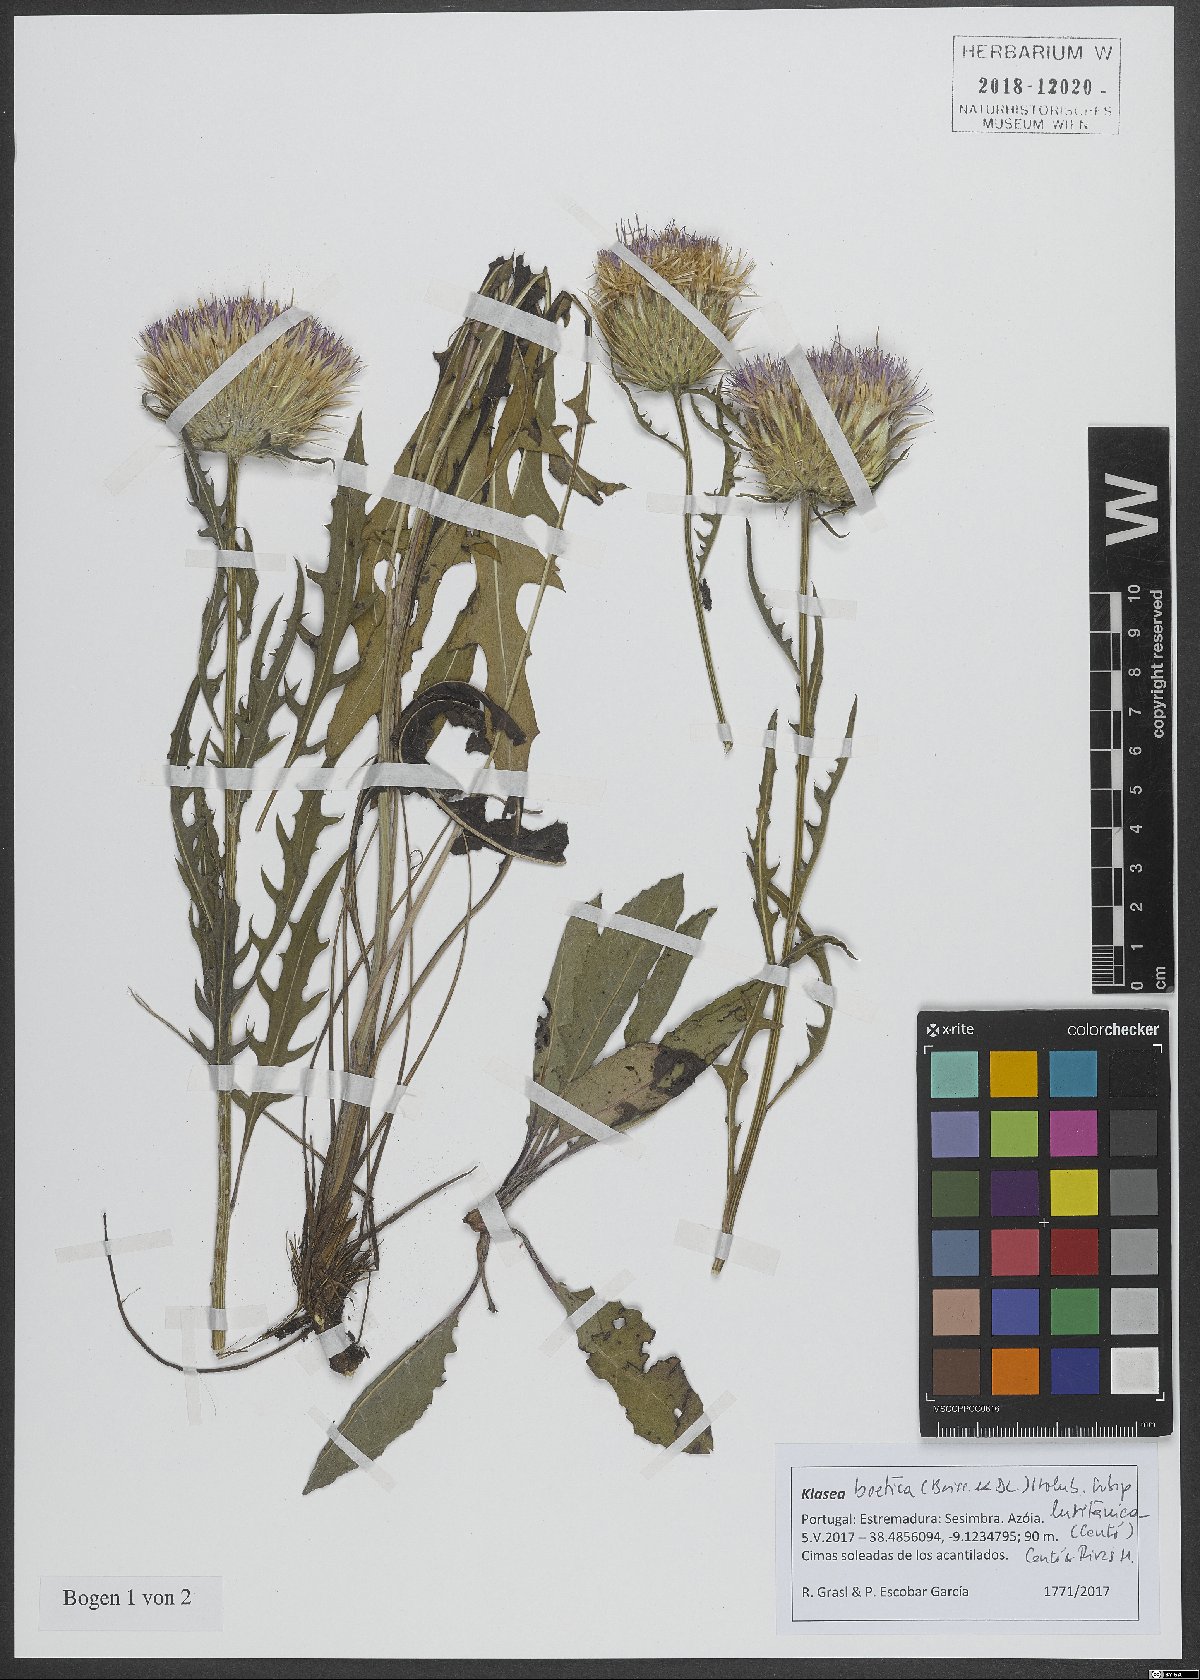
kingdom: Plantae
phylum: Tracheophyta
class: Magnoliopsida
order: Asterales
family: Asteraceae
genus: Klasea
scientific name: Klasea boetica
